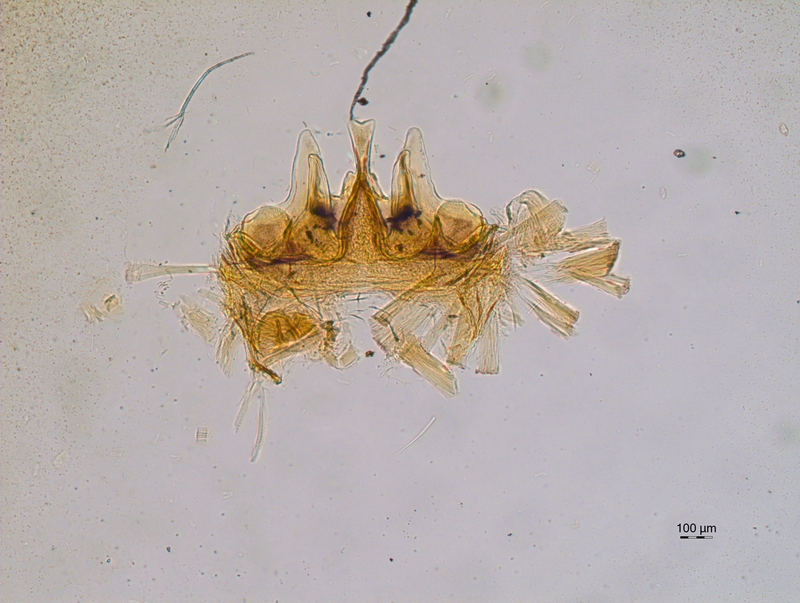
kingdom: Animalia
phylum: Arthropoda
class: Diplopoda
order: Chordeumatida
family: Craspedosomatidae
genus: Craspedosoma
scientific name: Craspedosoma rawlinsii
